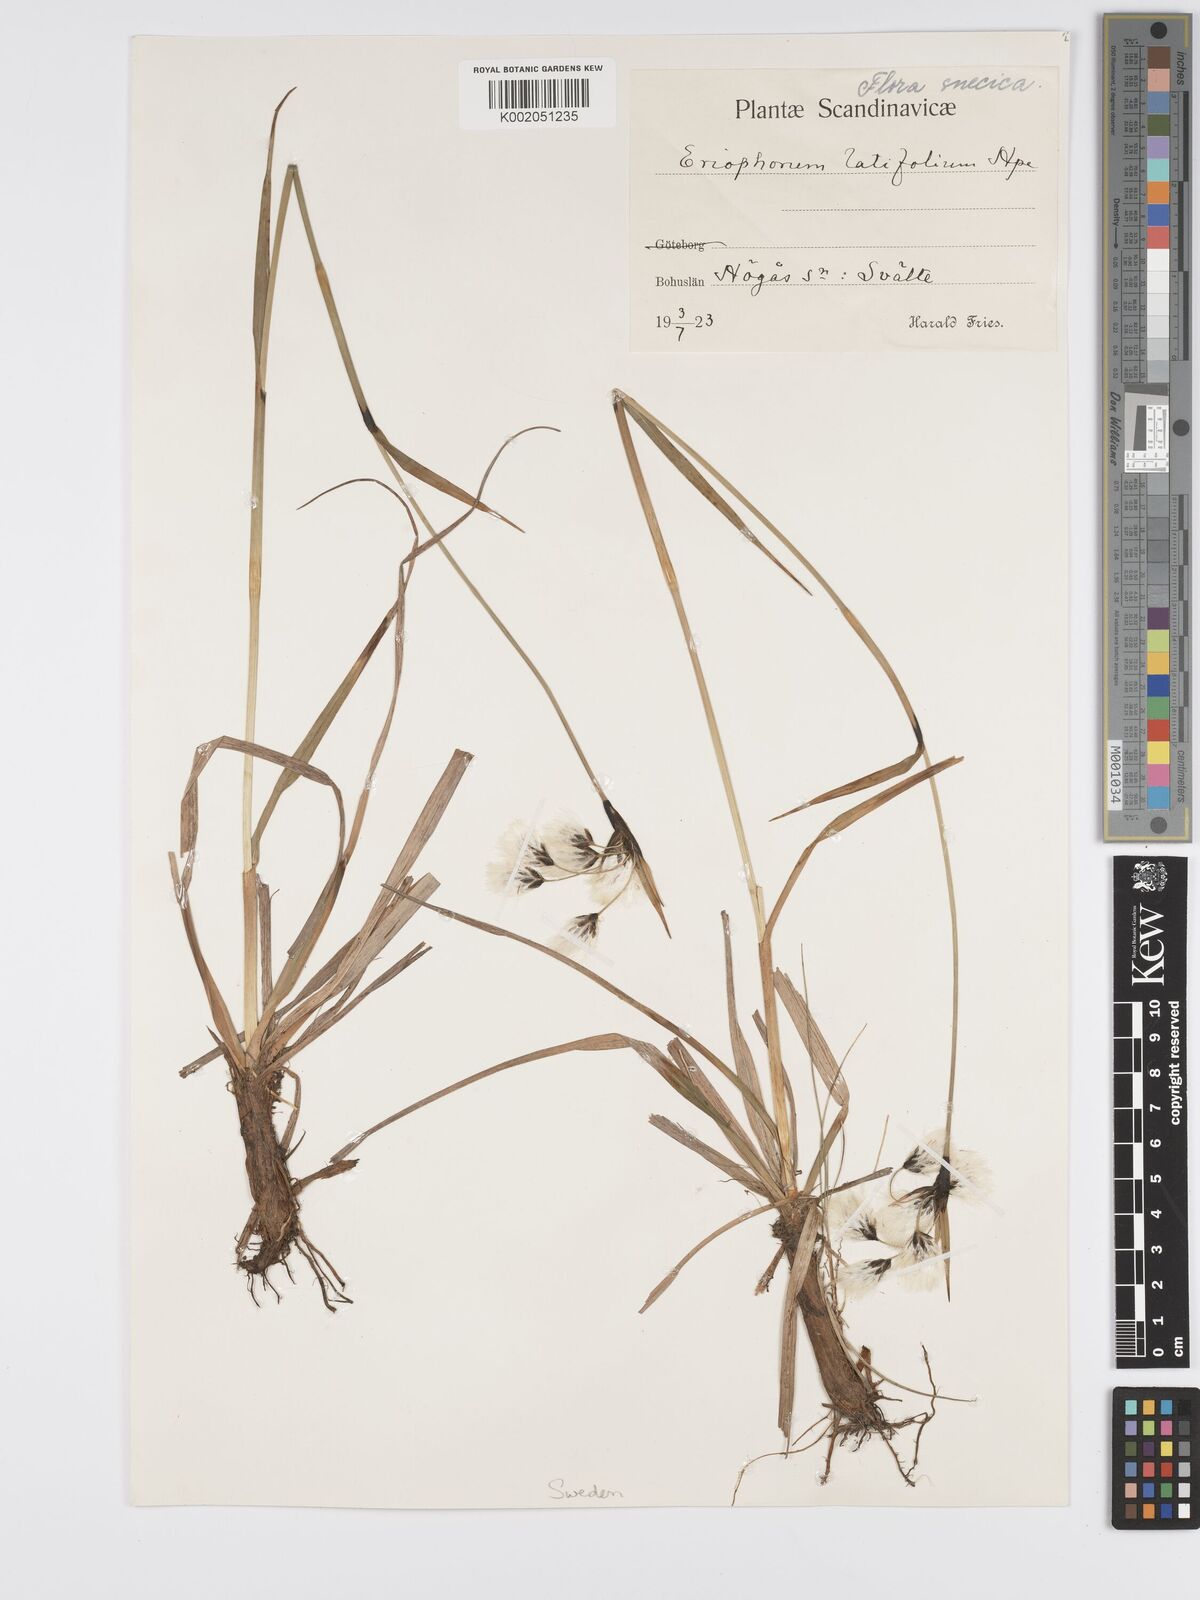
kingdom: Plantae
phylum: Tracheophyta
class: Liliopsida
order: Poales
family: Cyperaceae
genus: Eriophorum
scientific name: Eriophorum latifolium
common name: Broad-leaved cottongrass
